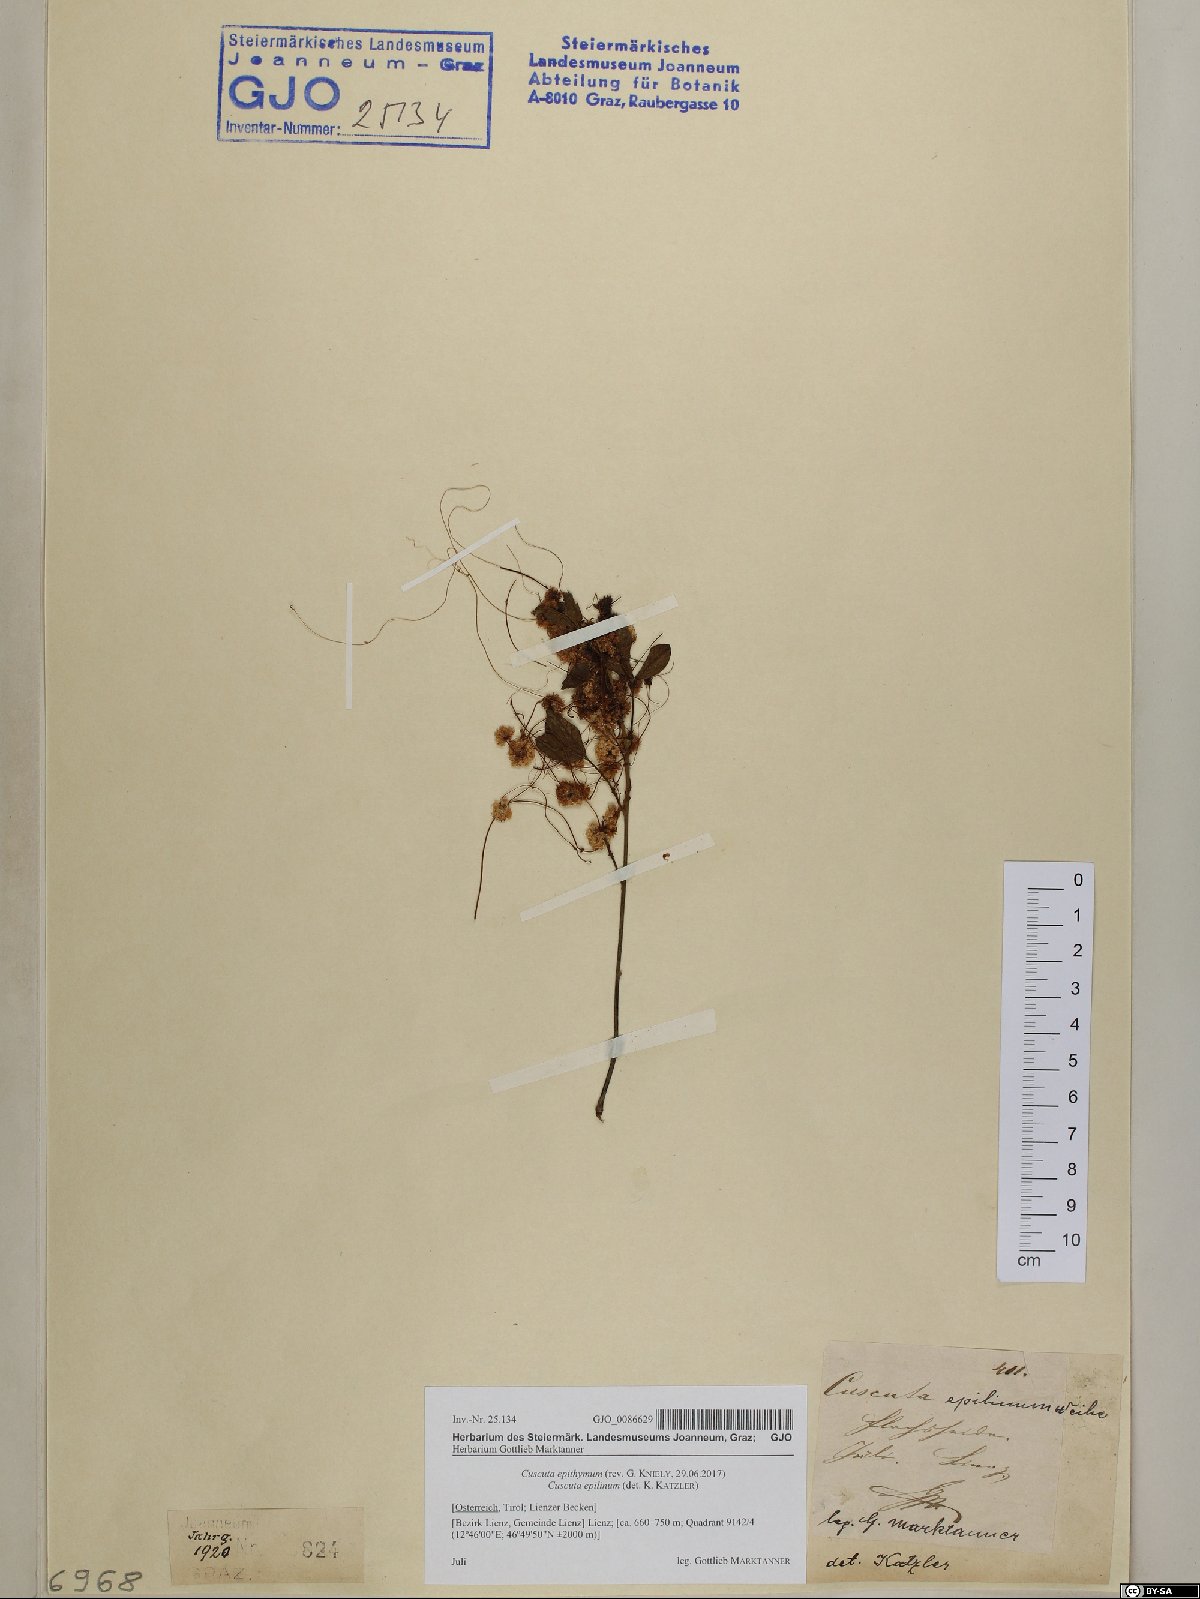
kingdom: Plantae
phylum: Tracheophyta
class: Magnoliopsida
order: Solanales
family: Convolvulaceae
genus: Cuscuta
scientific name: Cuscuta epithymum
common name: Clover dodder
